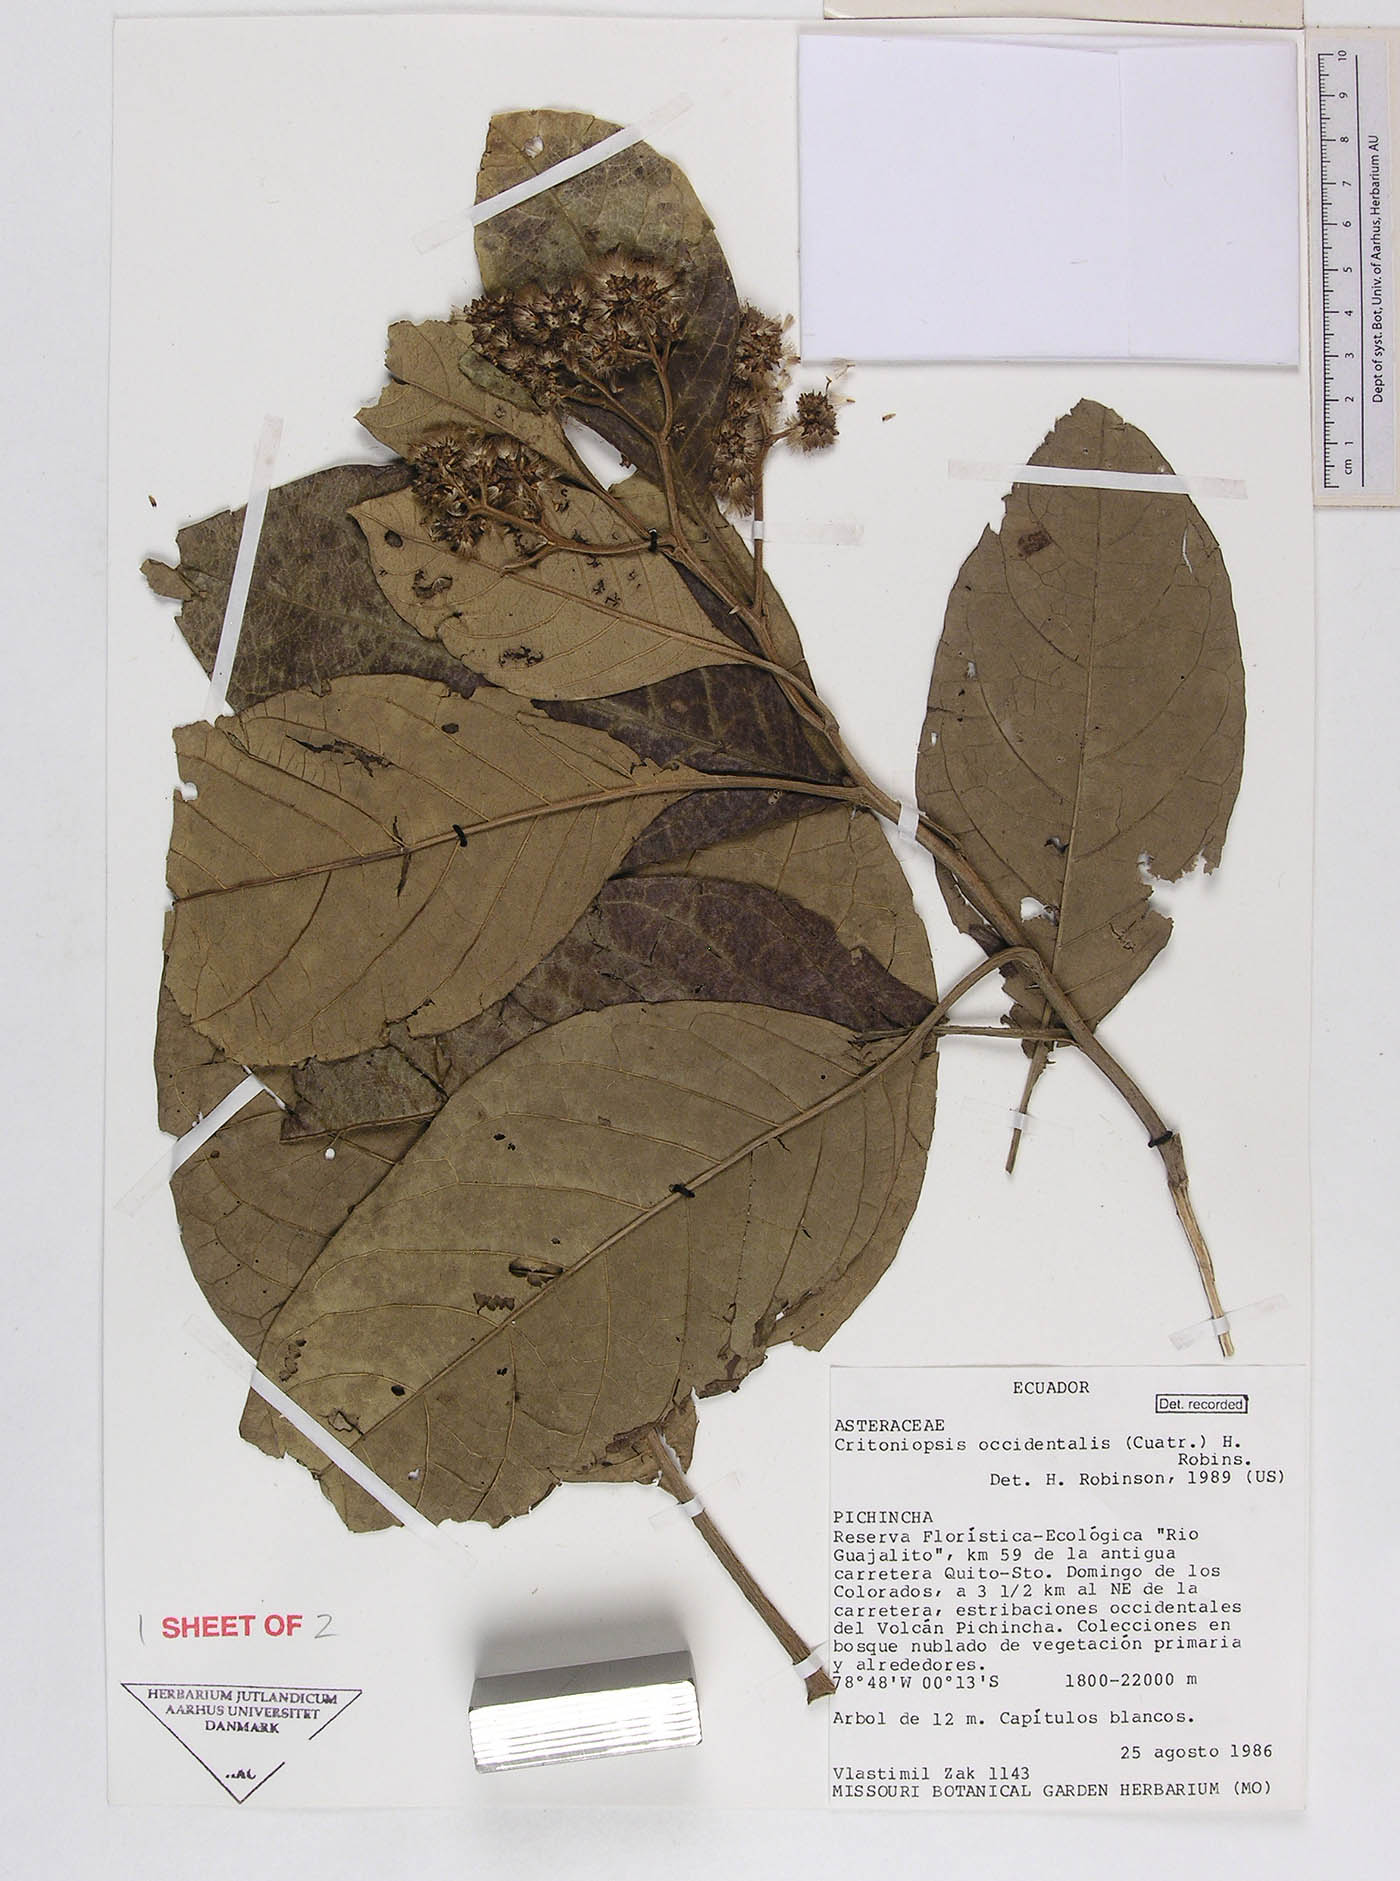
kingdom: Plantae
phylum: Tracheophyta
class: Magnoliopsida
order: Asterales
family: Asteraceae
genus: Critoniopsis
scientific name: Critoniopsis occidentalis
